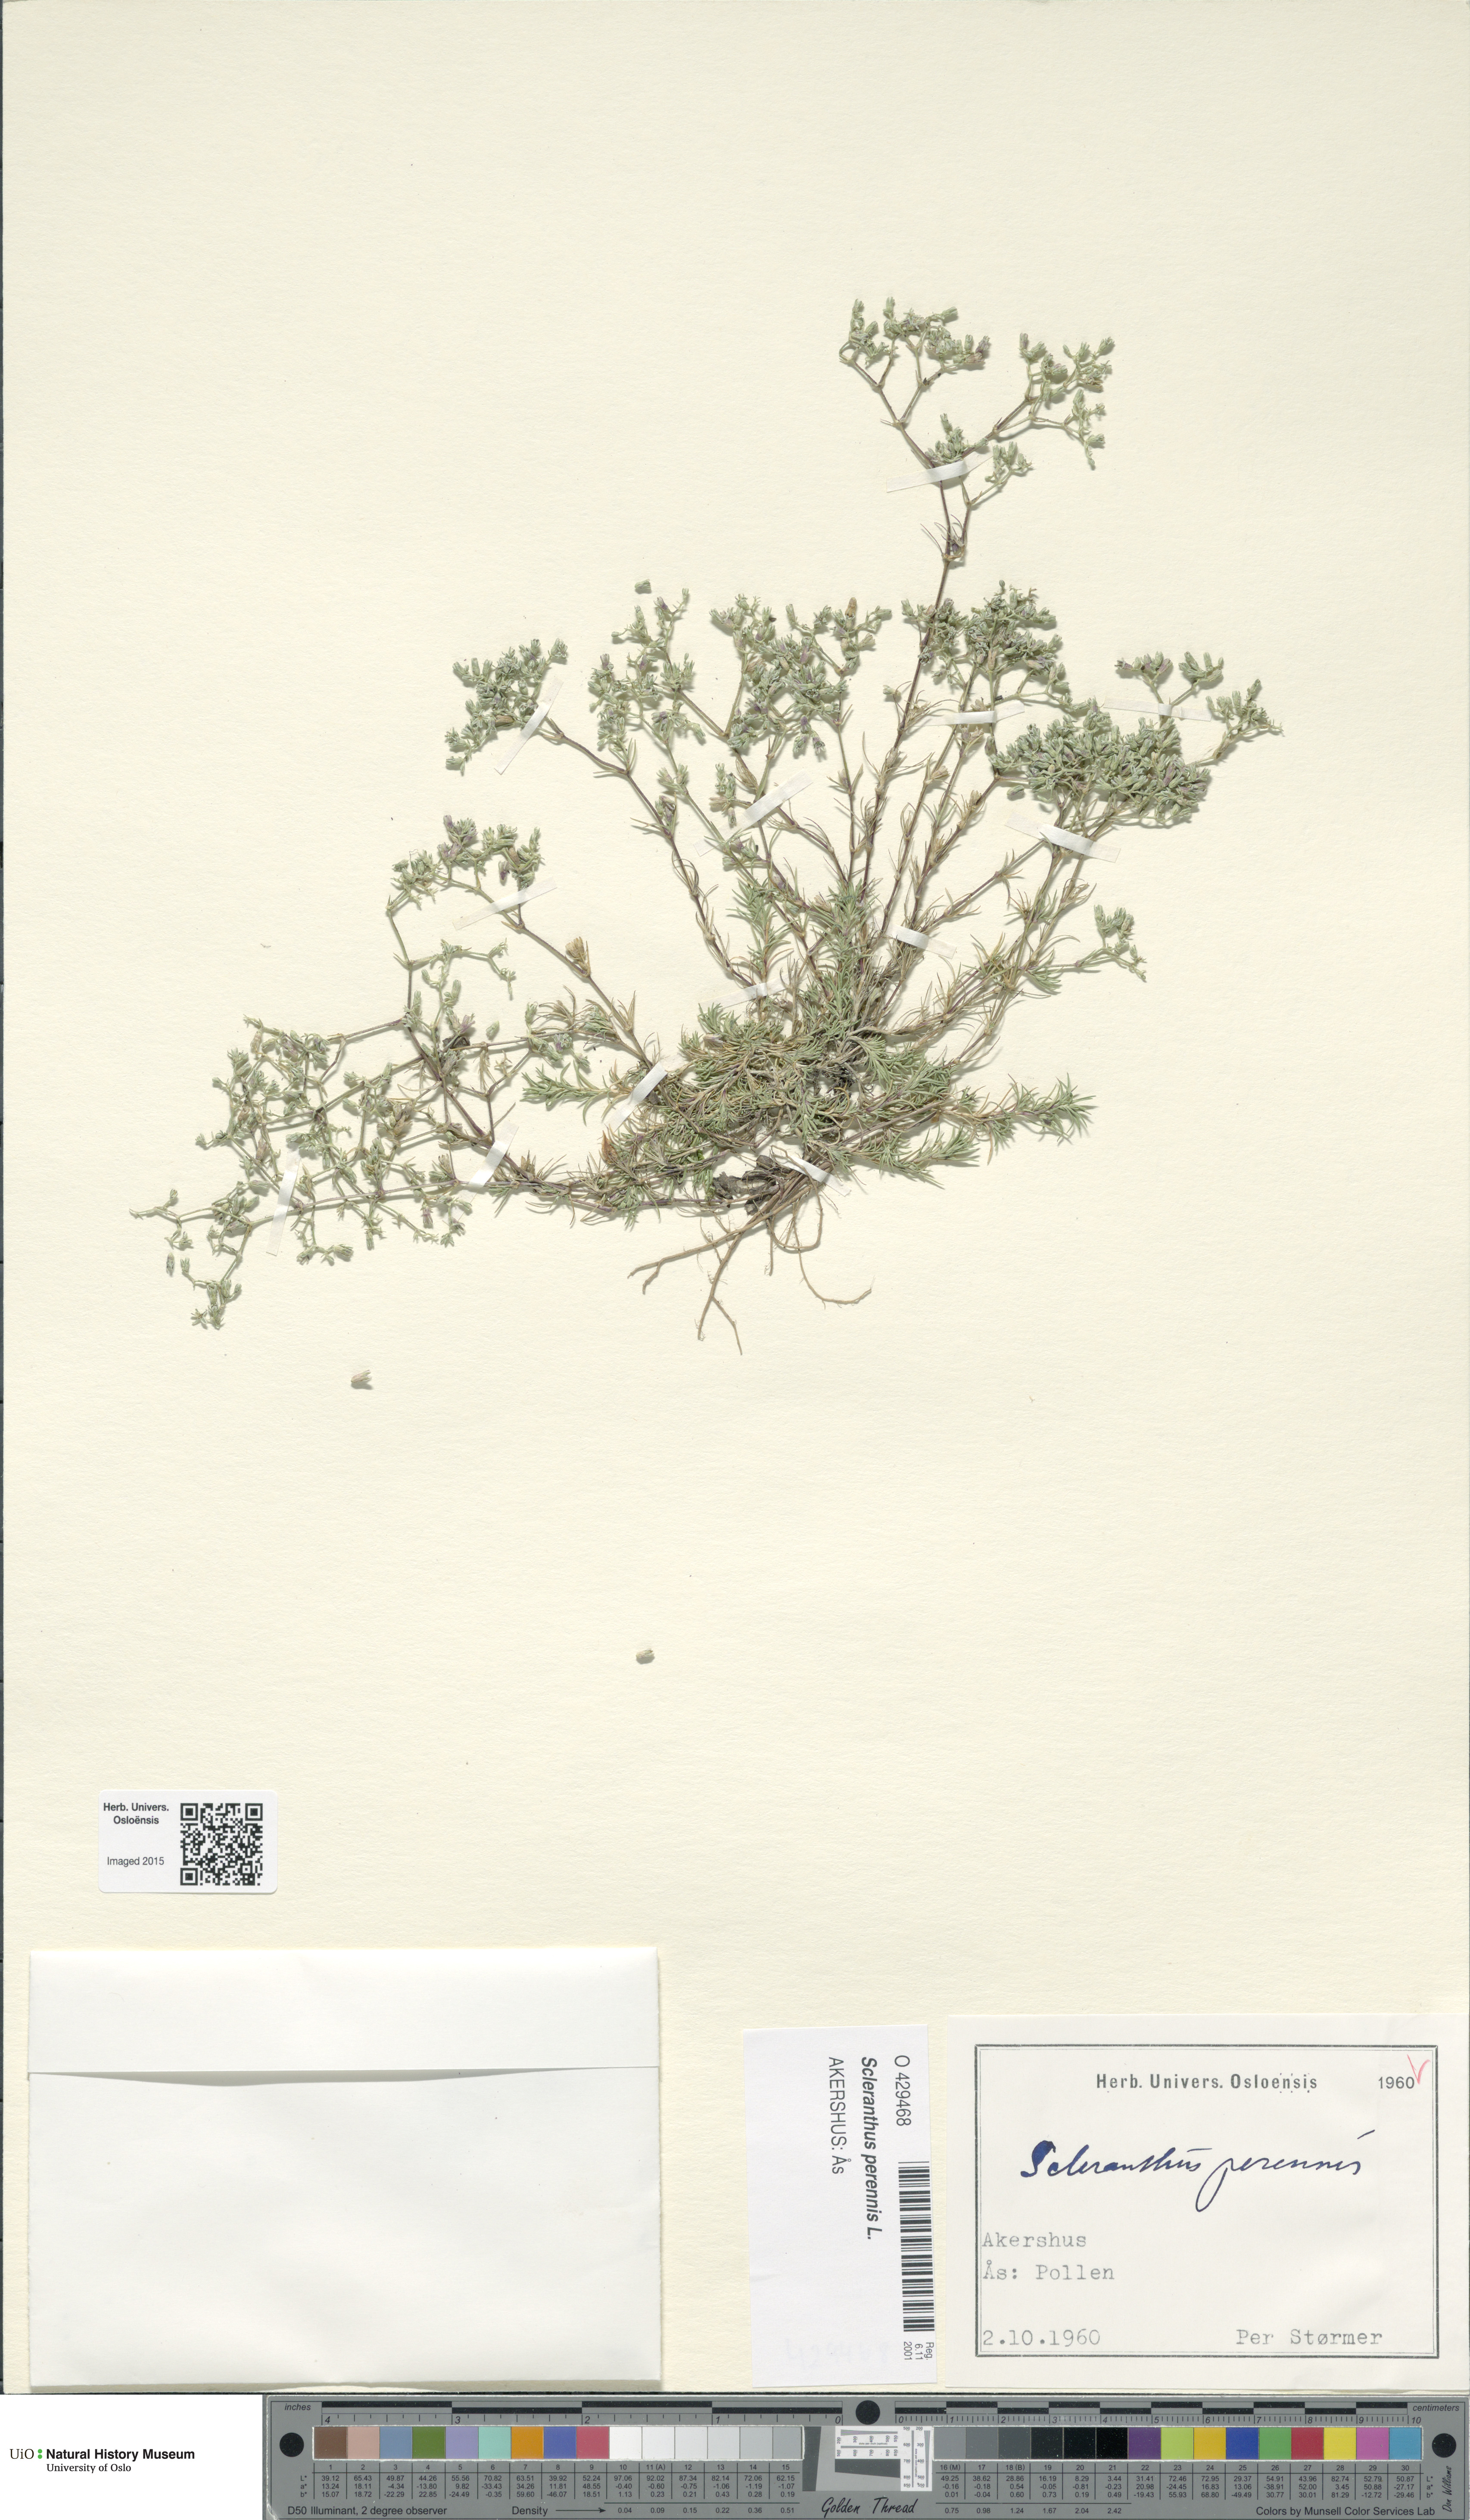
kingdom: Plantae
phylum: Tracheophyta
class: Magnoliopsida
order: Caryophyllales
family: Caryophyllaceae
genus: Scleranthus
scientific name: Scleranthus perennis
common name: Perennial knawel
